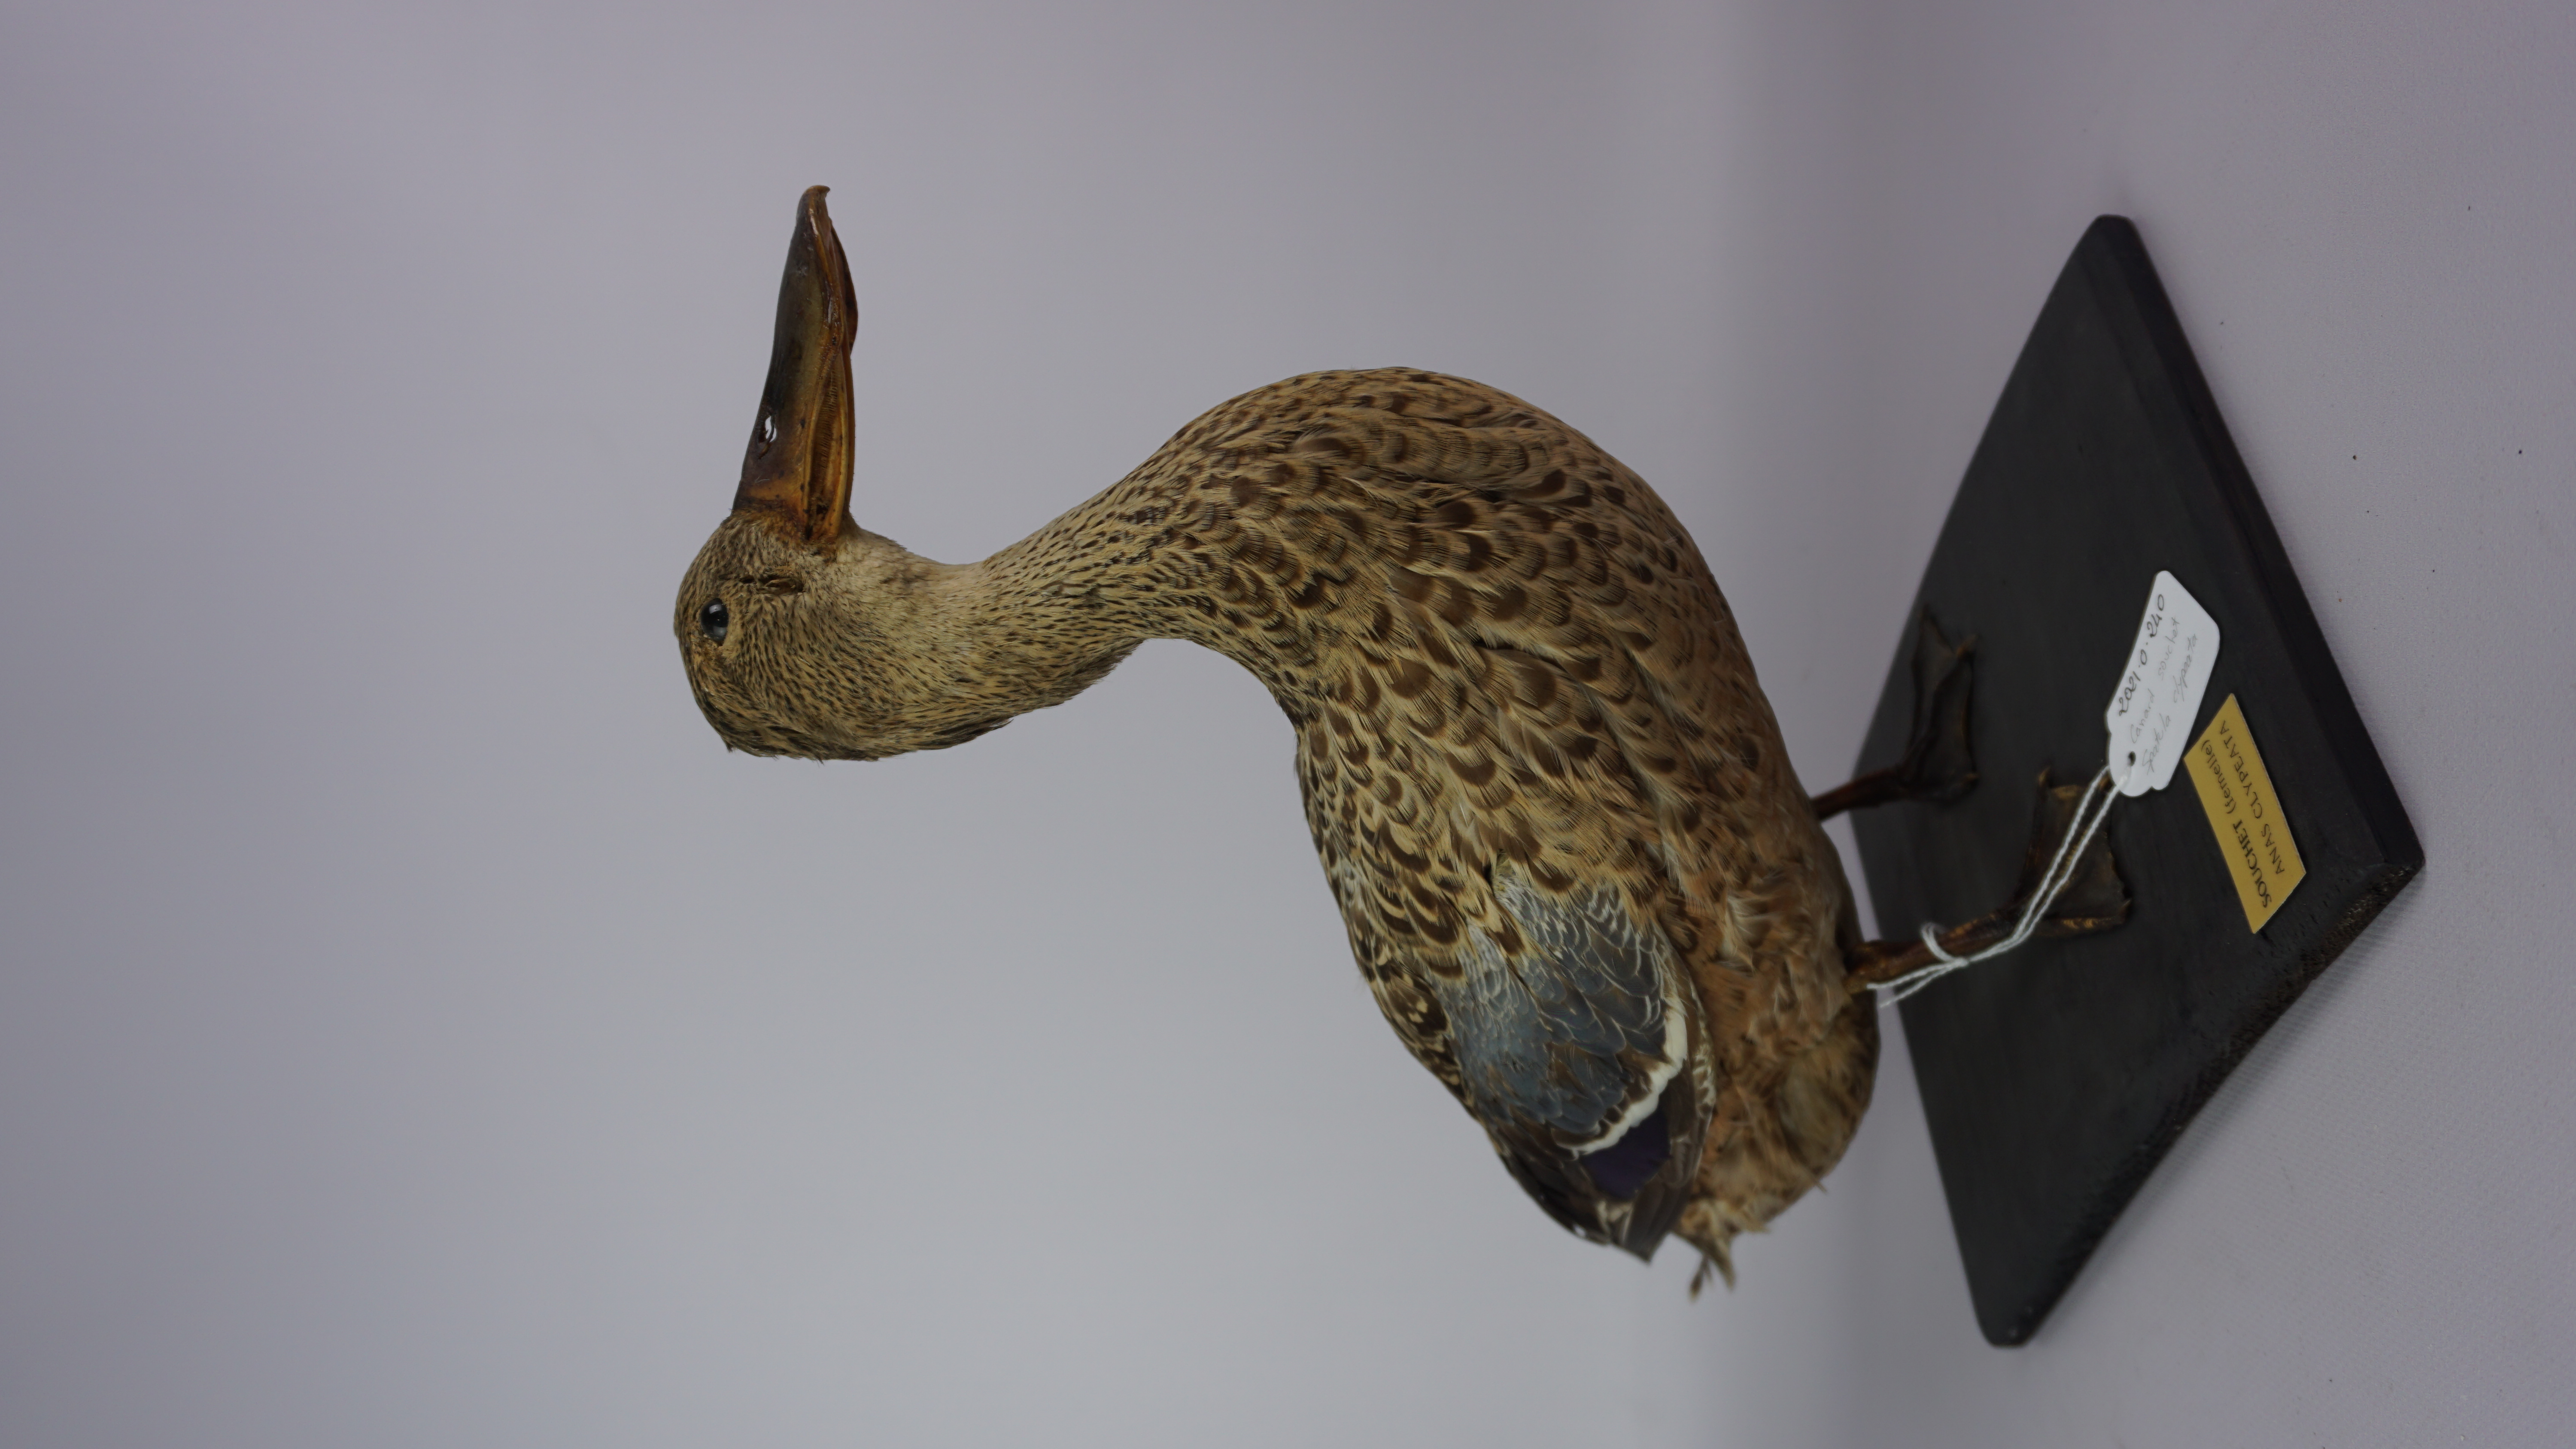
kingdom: Animalia
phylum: Chordata
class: Aves
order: Anseriformes
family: Anatidae
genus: Spatula
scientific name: Spatula clypeata
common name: Northern shoveler
